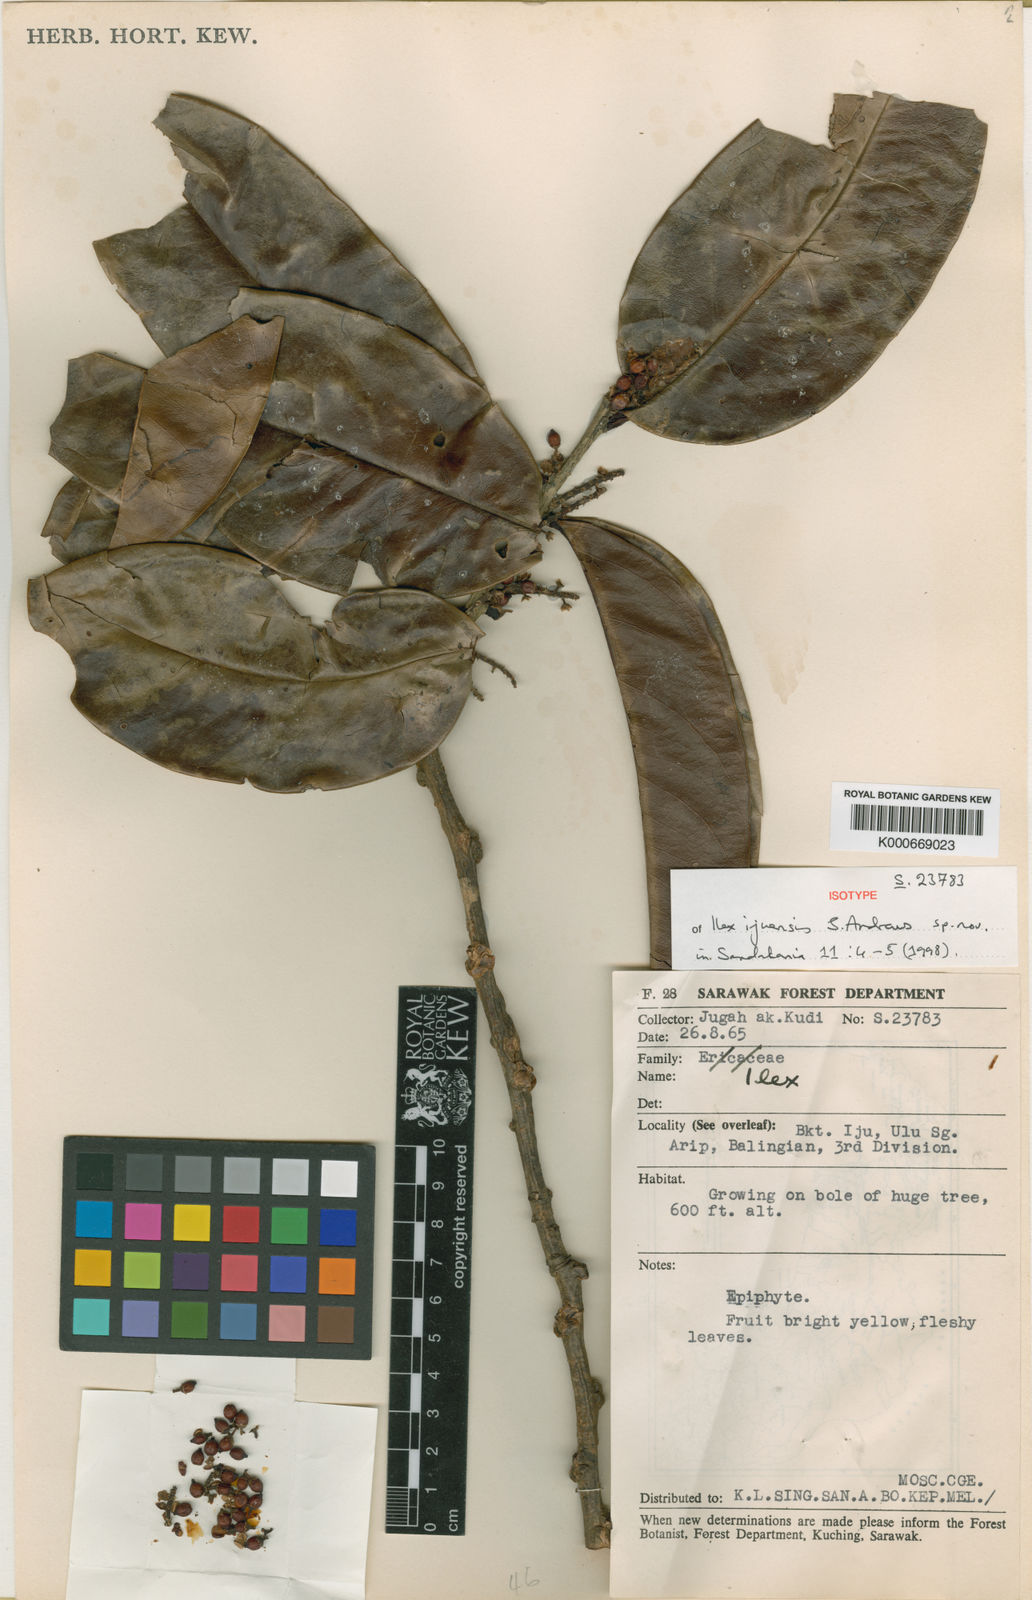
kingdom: Plantae
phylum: Tracheophyta
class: Magnoliopsida
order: Aquifoliales
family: Aquifoliaceae
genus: Ilex
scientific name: Ilex ijuensis
